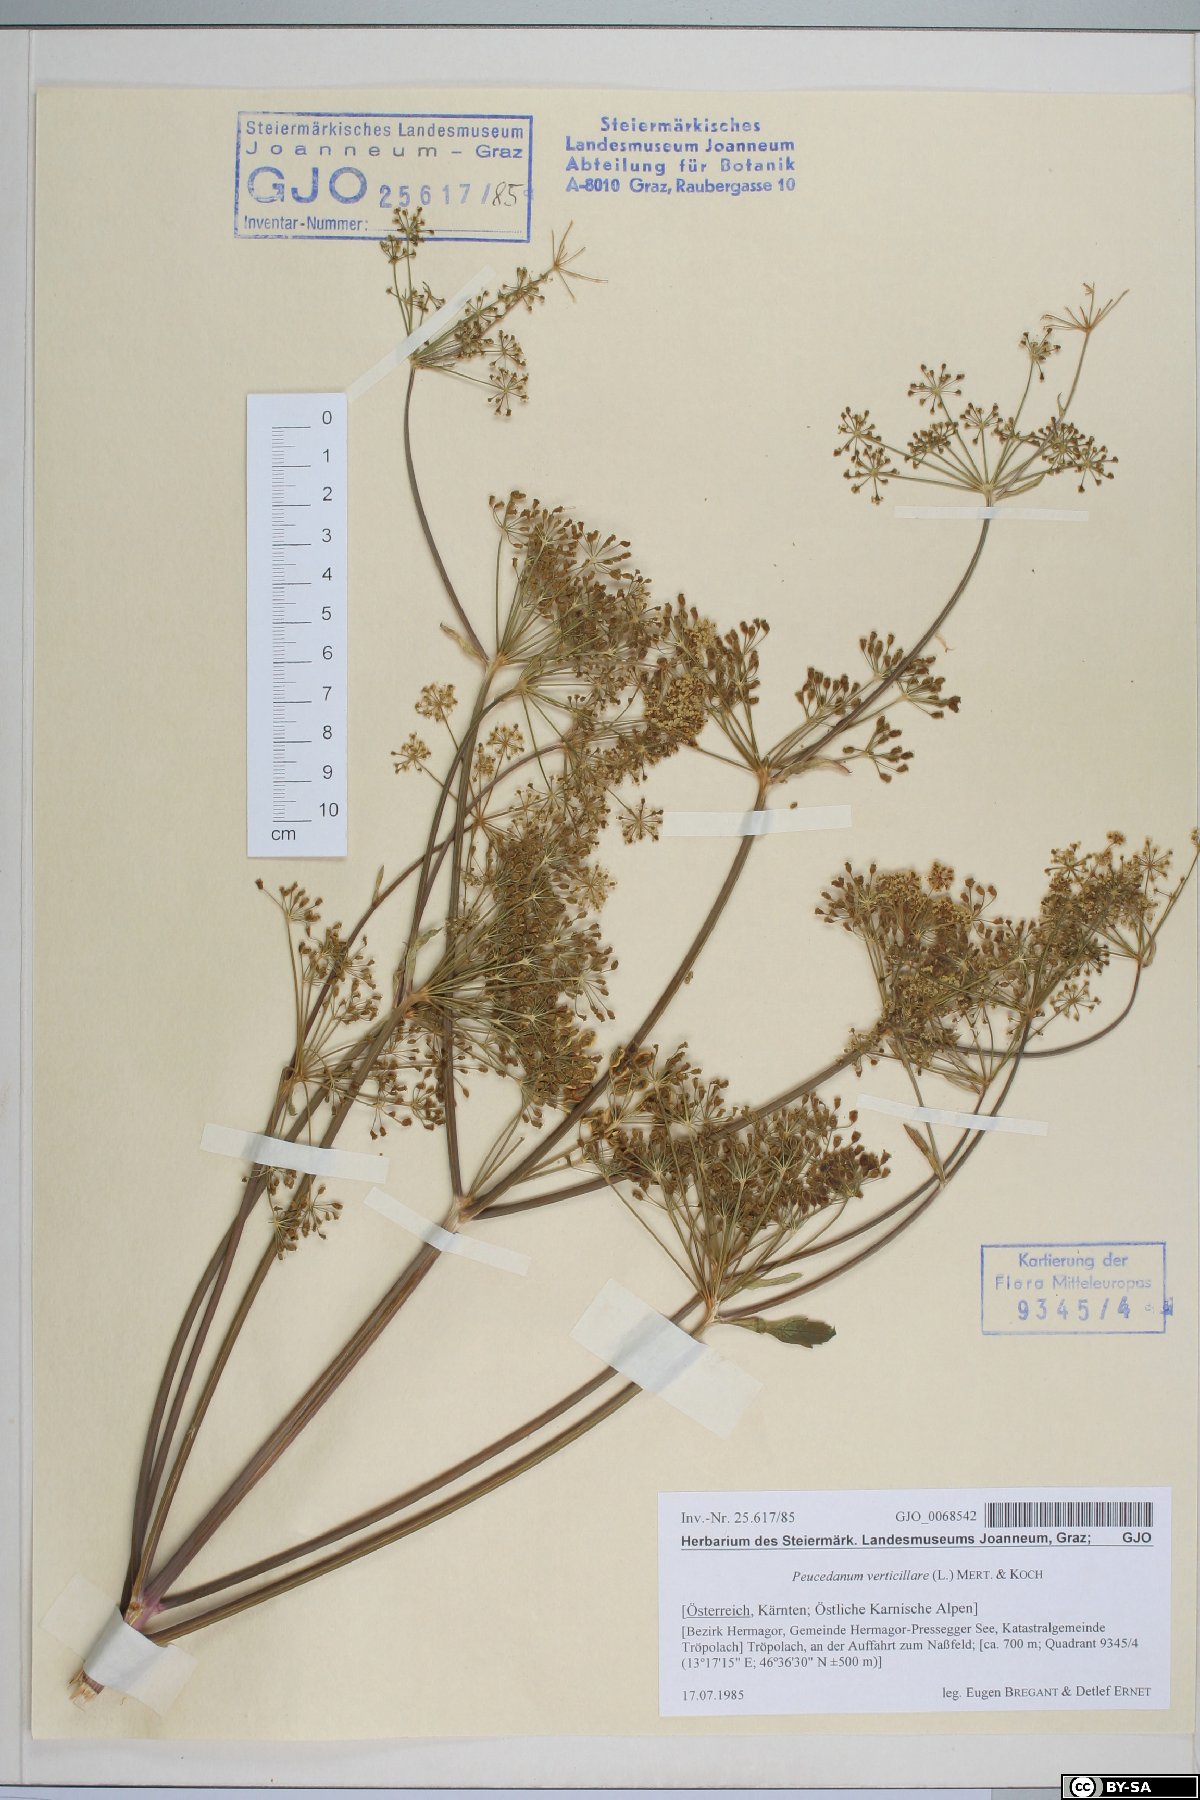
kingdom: Plantae
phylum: Tracheophyta
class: Magnoliopsida
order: Apiales
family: Apiaceae
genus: Tommasinia
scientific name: Tommasinia altissima
